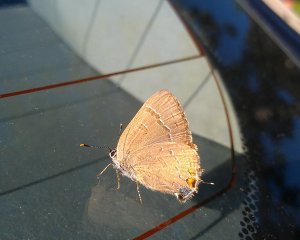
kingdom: Animalia
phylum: Arthropoda
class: Insecta
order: Lepidoptera
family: Lycaenidae
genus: Satyrium
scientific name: Satyrium calanus
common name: Banded Hairstreak
